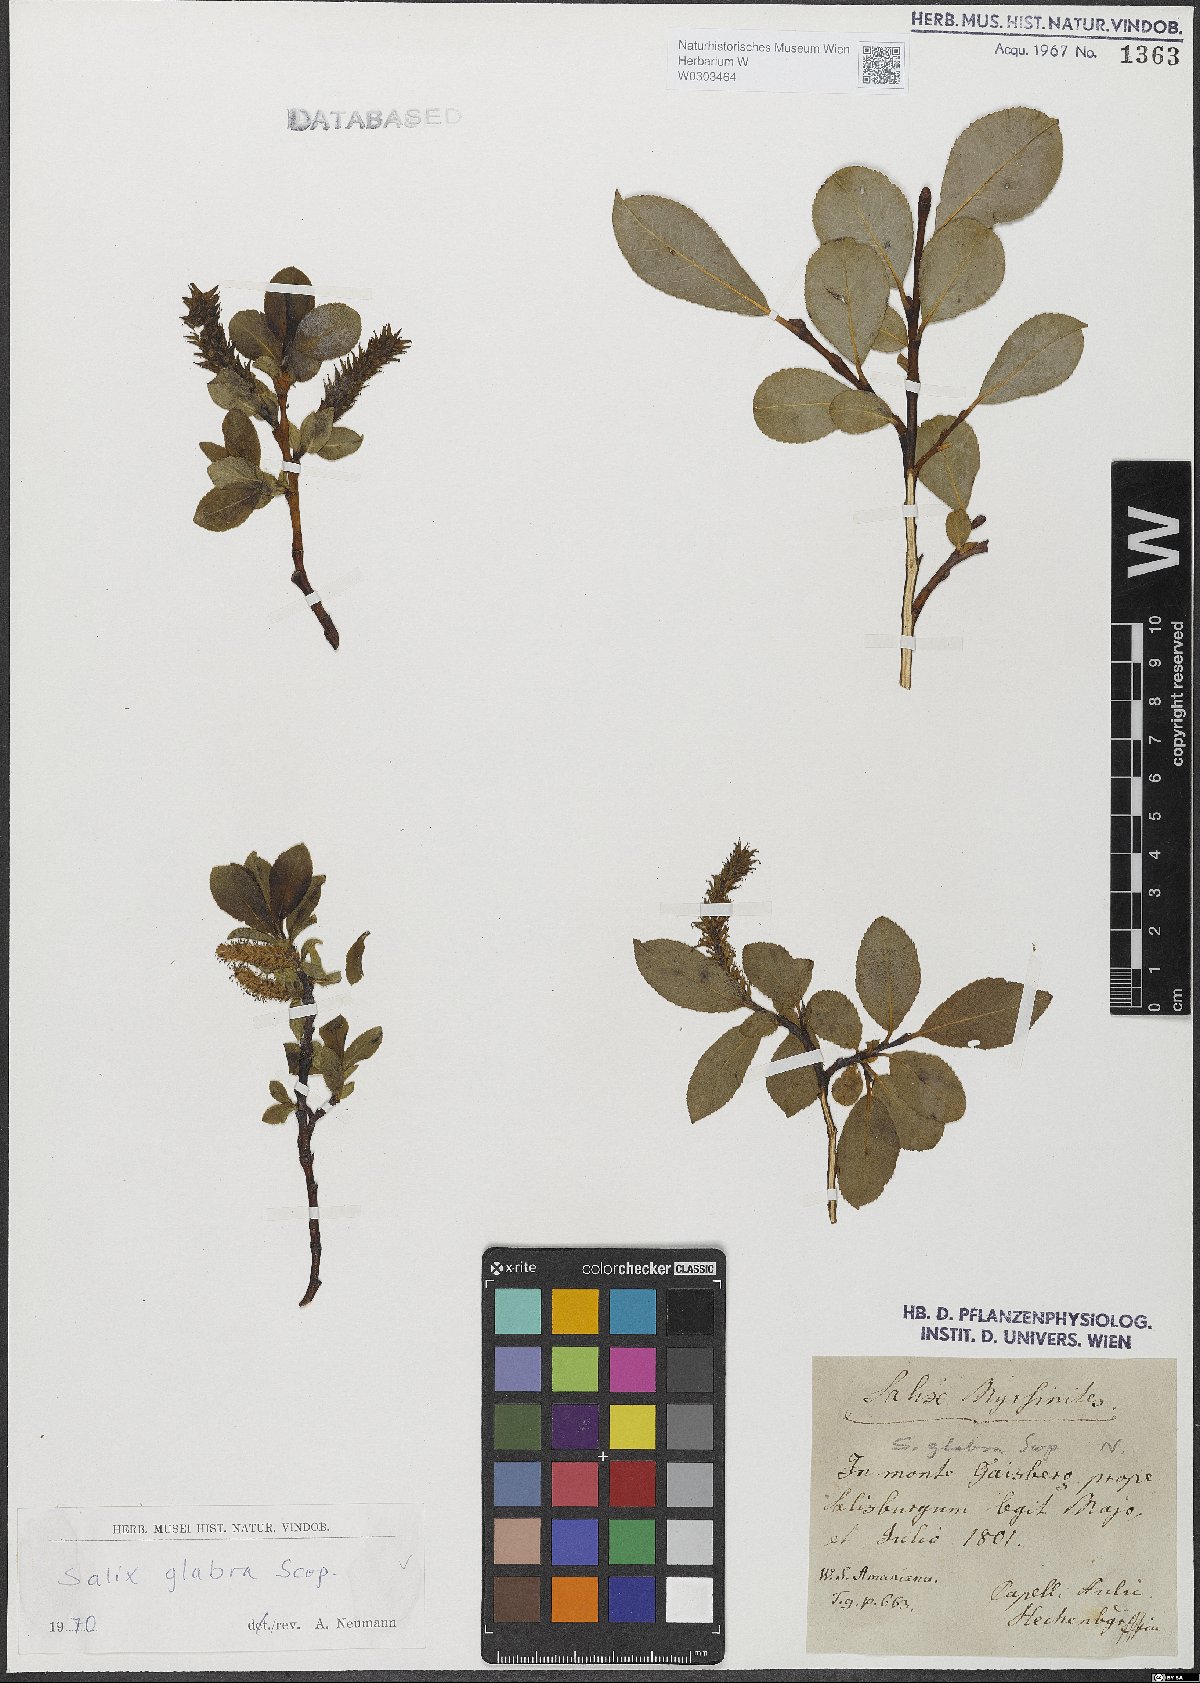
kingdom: Plantae
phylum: Tracheophyta
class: Magnoliopsida
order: Malpighiales
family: Salicaceae
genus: Salix
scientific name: Salix glabra
